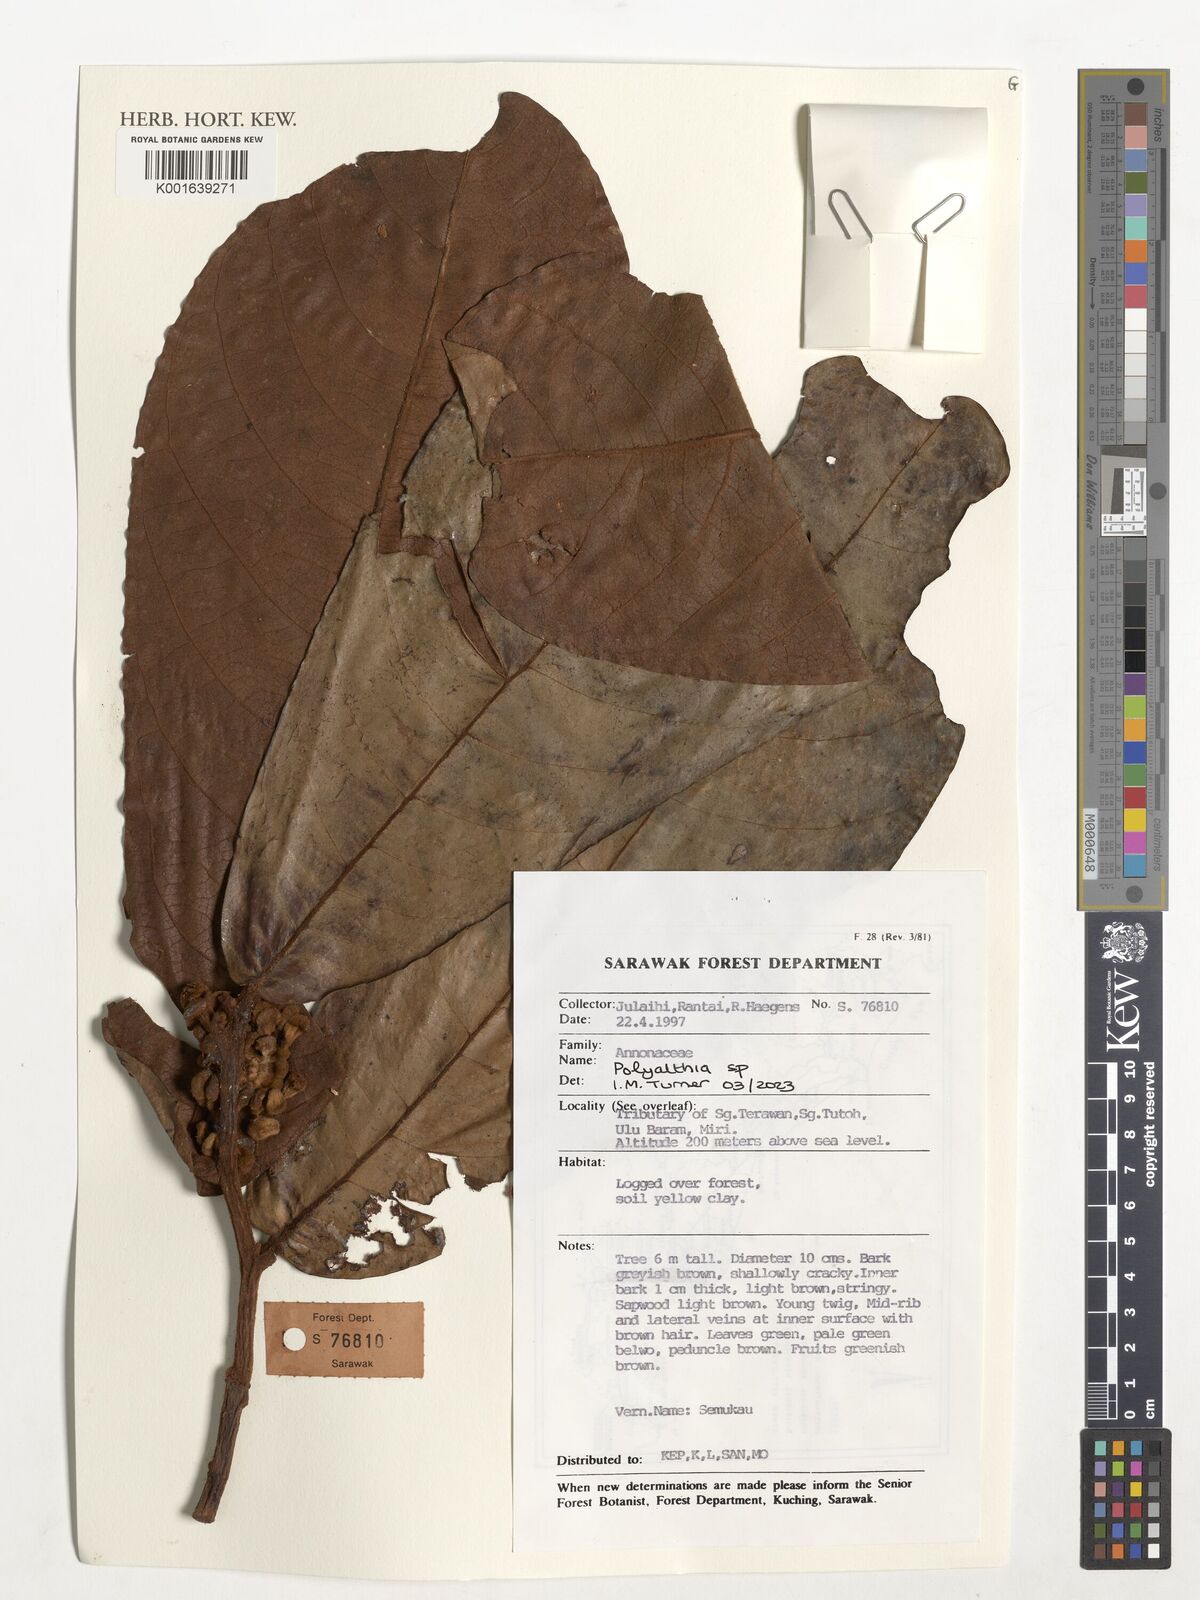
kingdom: Plantae
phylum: Tracheophyta
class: Magnoliopsida
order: Magnoliales
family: Annonaceae
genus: Polyalthia
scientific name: Polyalthia
